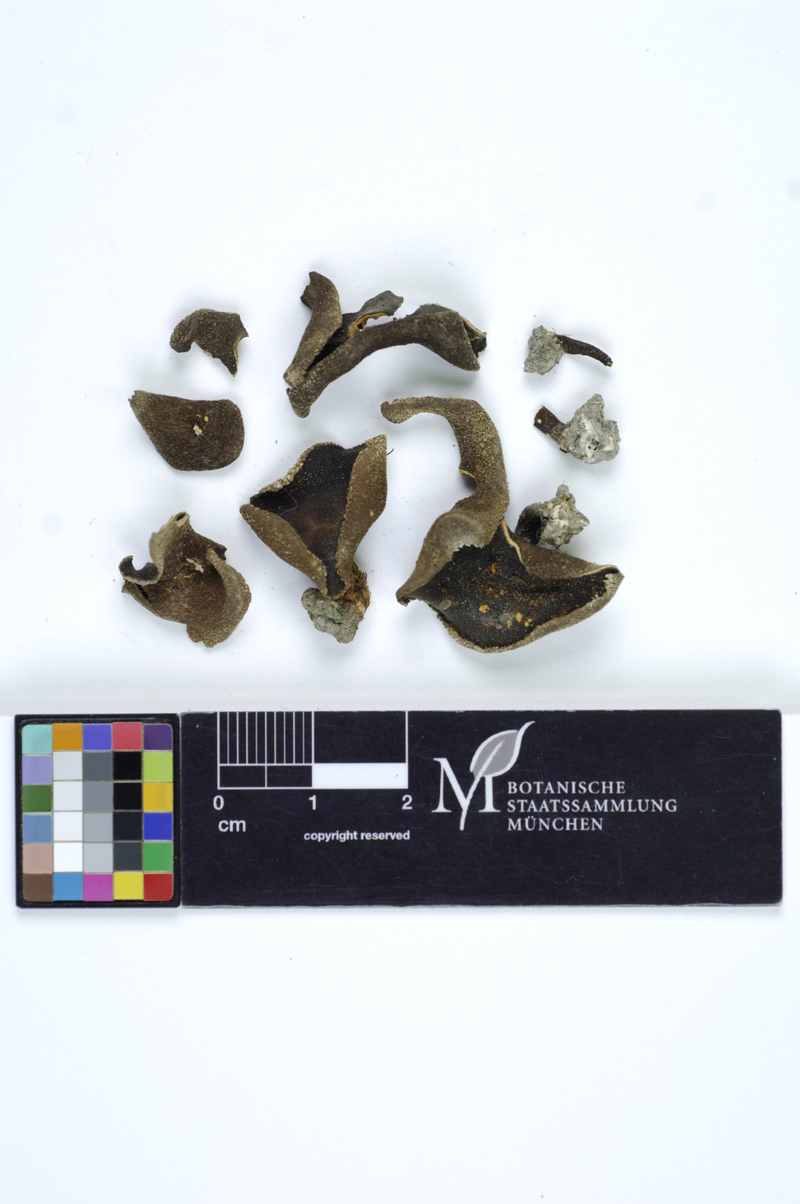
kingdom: Fungi
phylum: Ascomycota
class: Pezizomycetes
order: Pezizales
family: Helvellaceae
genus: Helvella
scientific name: Helvella arctica
